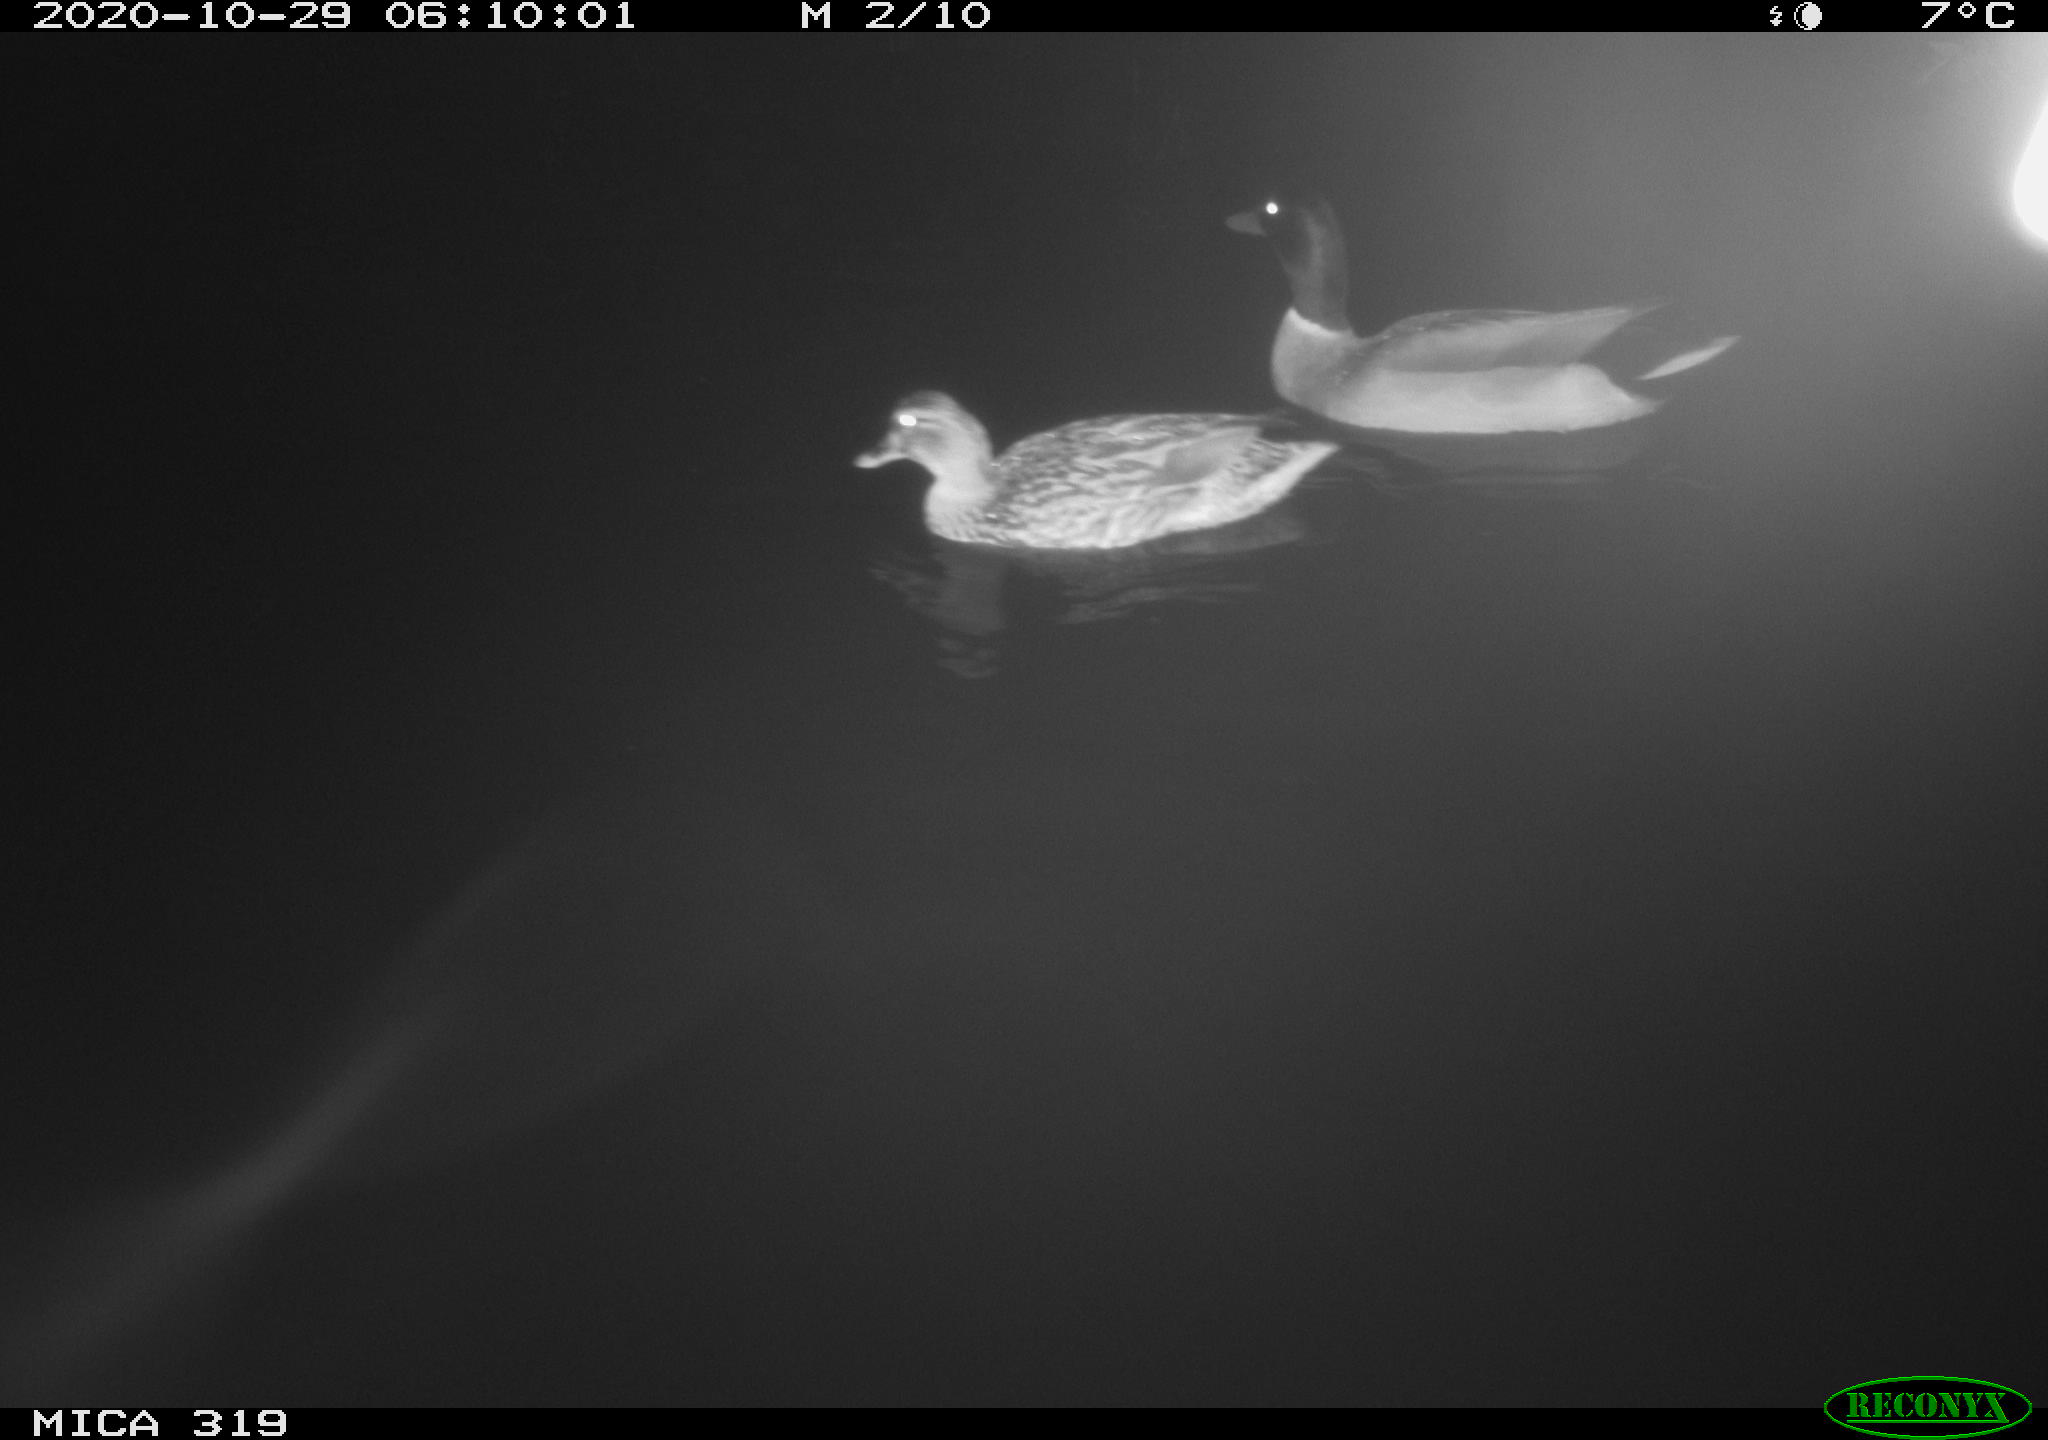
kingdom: Animalia
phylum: Chordata
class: Aves
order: Anseriformes
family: Anatidae
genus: Anas
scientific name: Anas platyrhynchos
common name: Mallard
